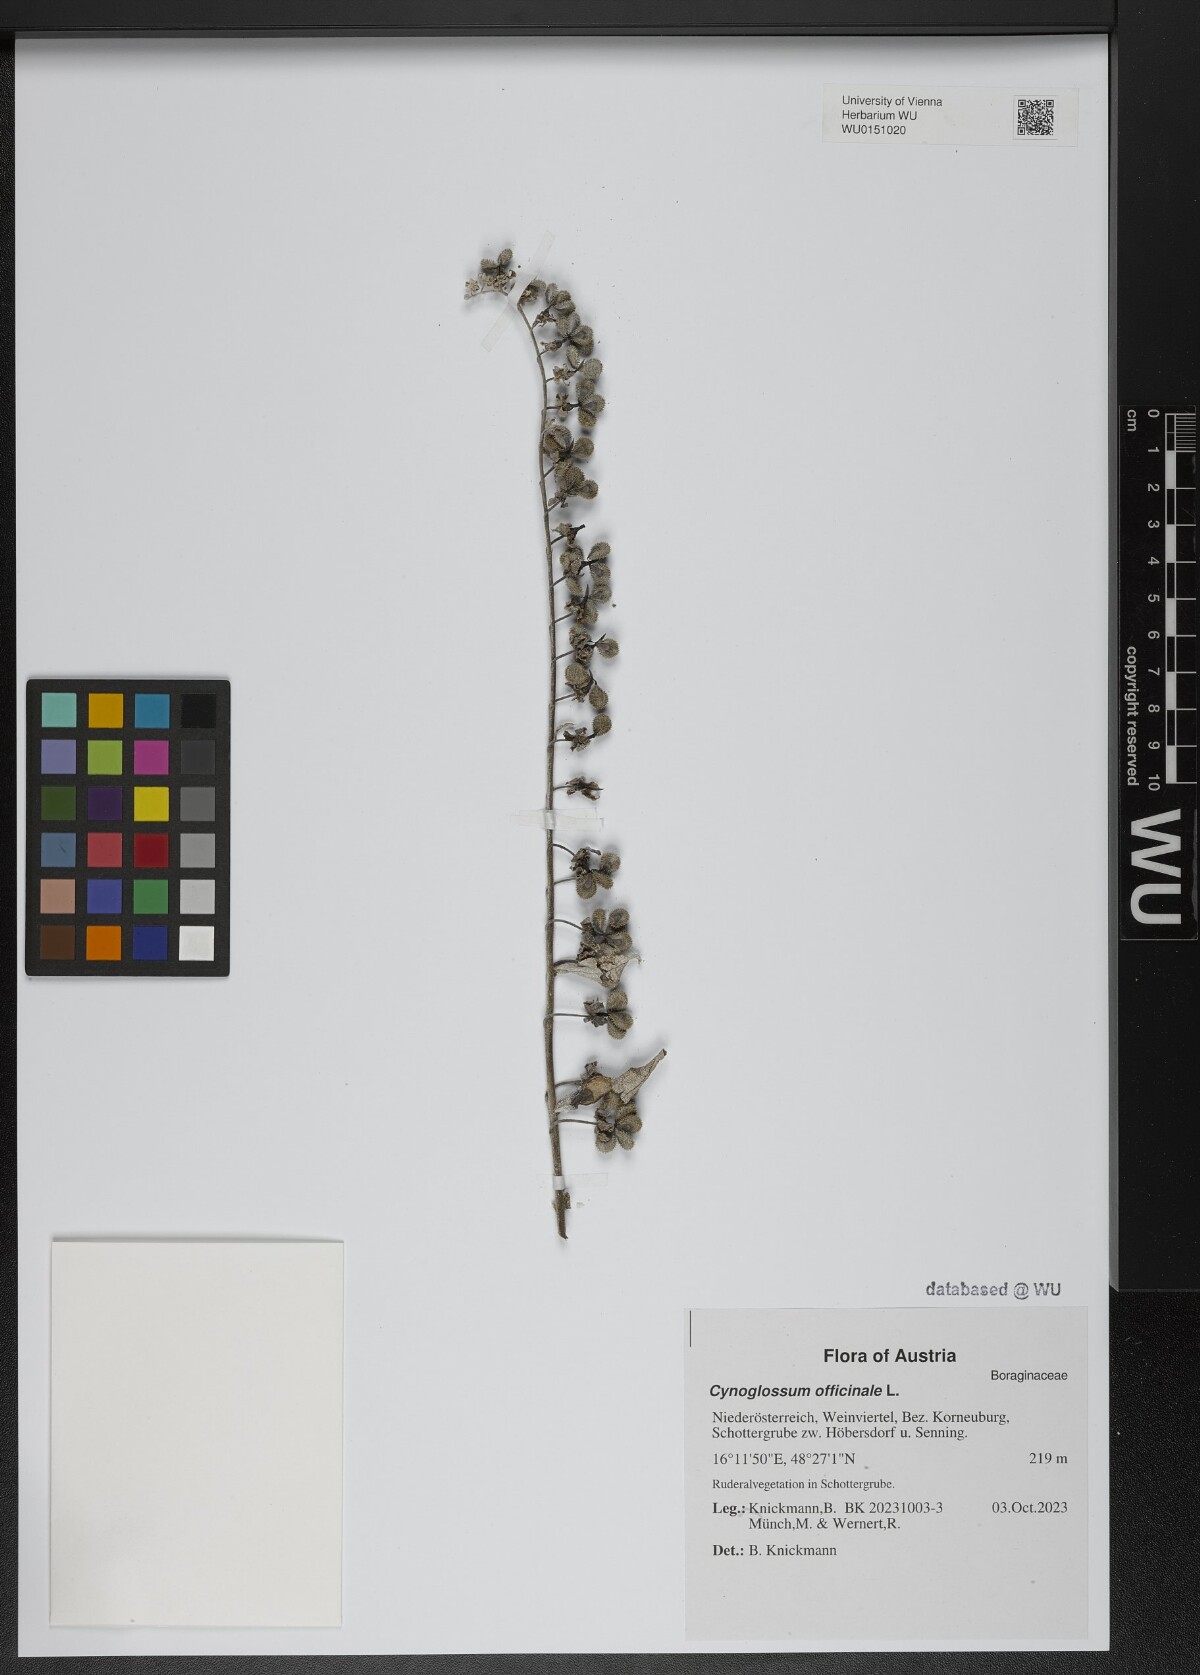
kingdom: Plantae
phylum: Tracheophyta
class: Magnoliopsida
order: Boraginales
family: Boraginaceae
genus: Cynoglossum
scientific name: Cynoglossum officinale
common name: Hound's-tongue
